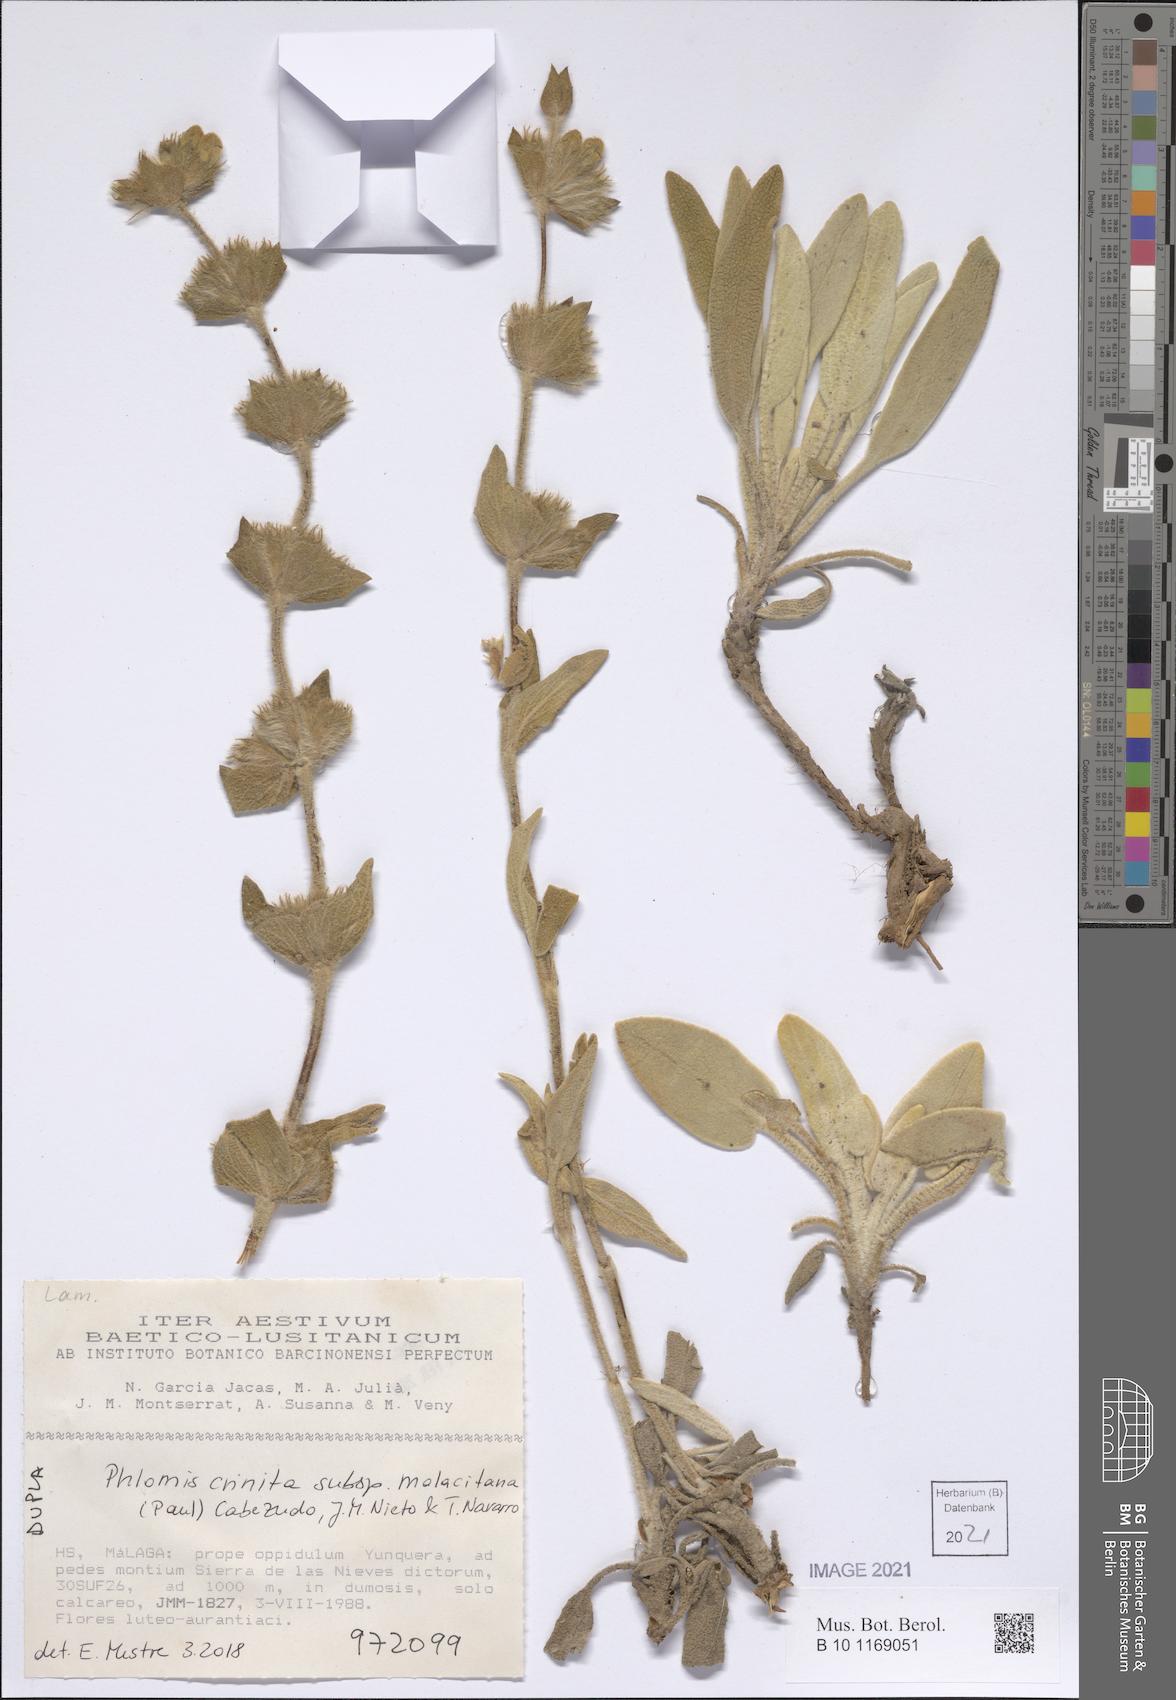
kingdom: Plantae
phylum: Tracheophyta
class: Magnoliopsida
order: Lamiales
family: Lamiaceae
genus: Phlomis
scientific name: Phlomis crinita
